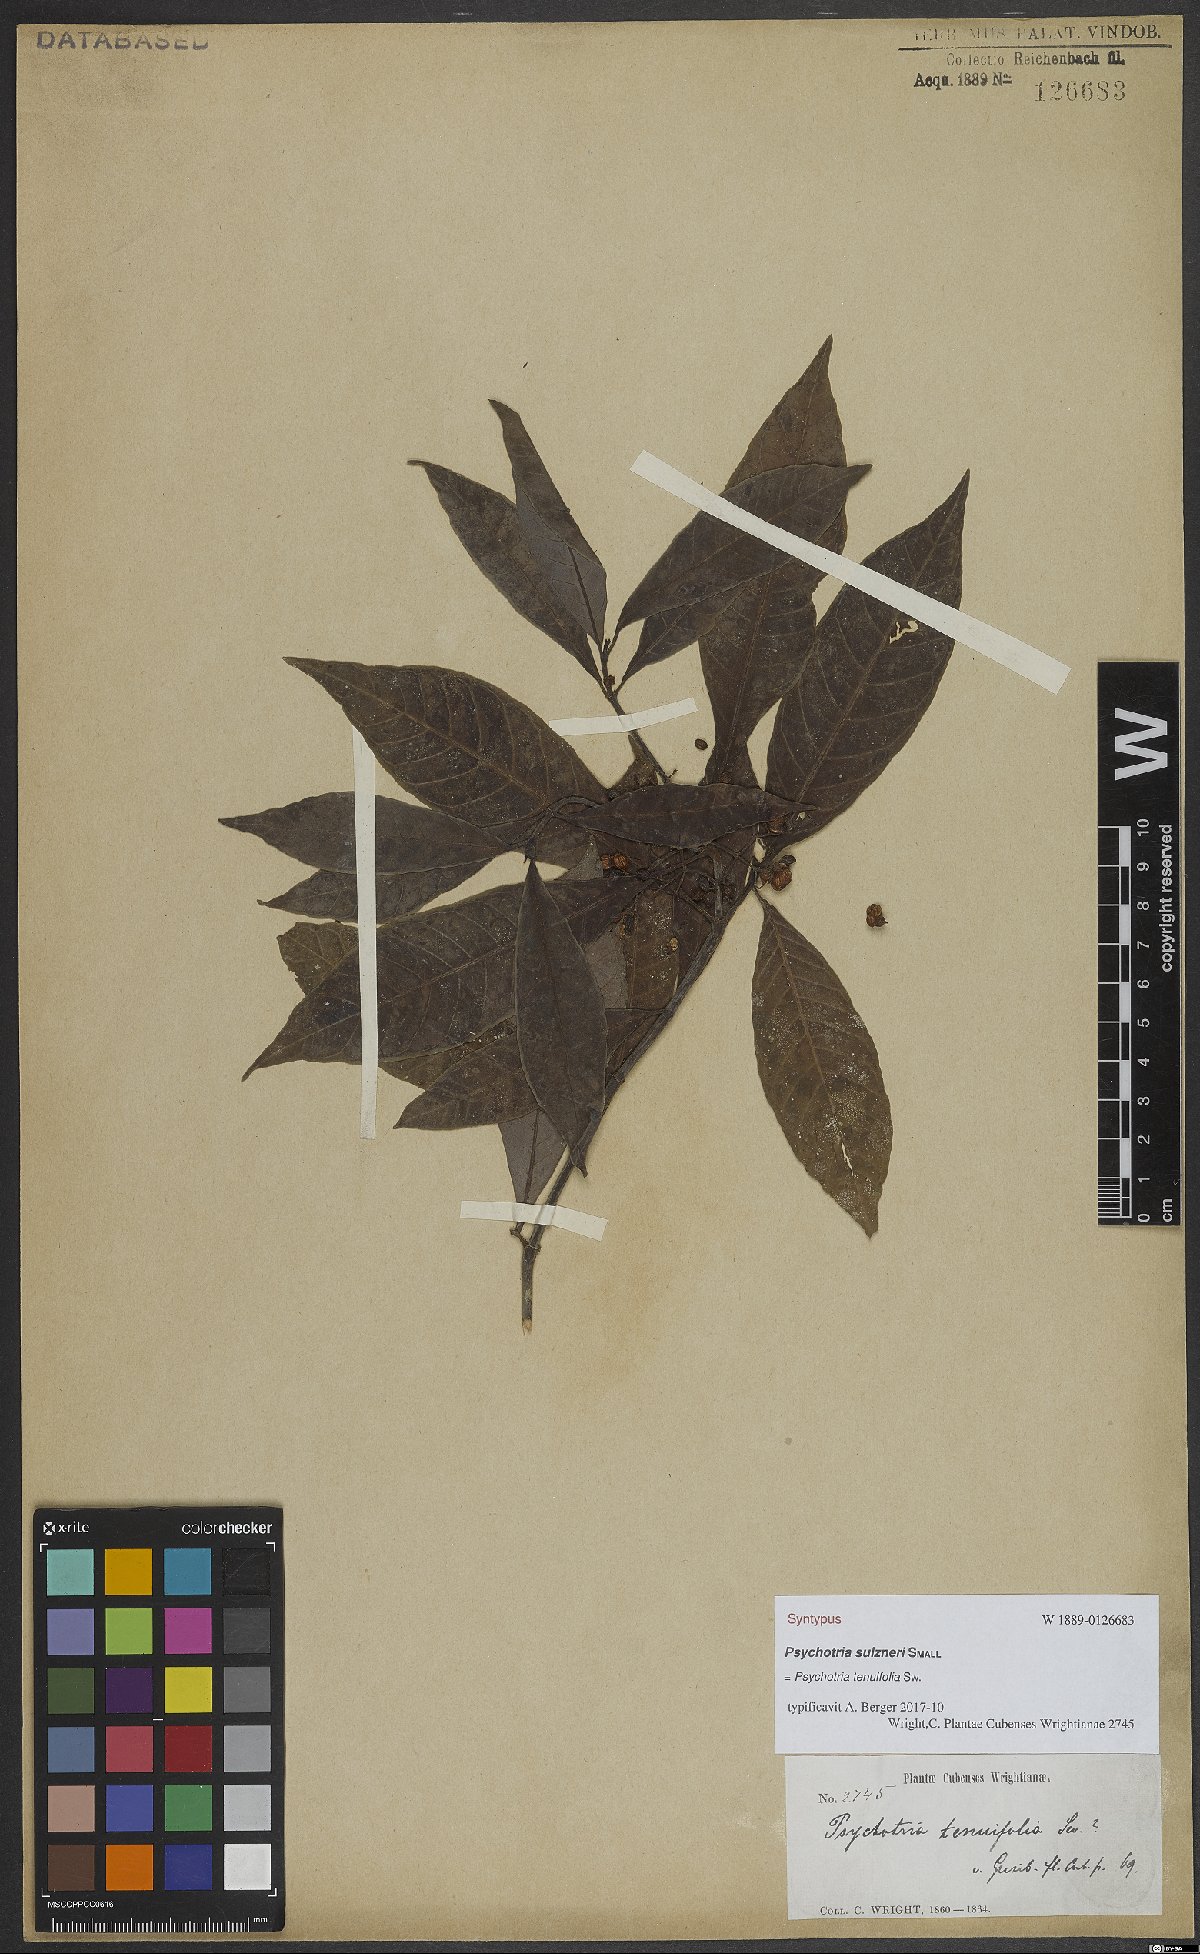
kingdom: Plantae
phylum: Tracheophyta
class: Magnoliopsida
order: Gentianales
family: Rubiaceae
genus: Psychotria
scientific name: Psychotria tenuifolia
